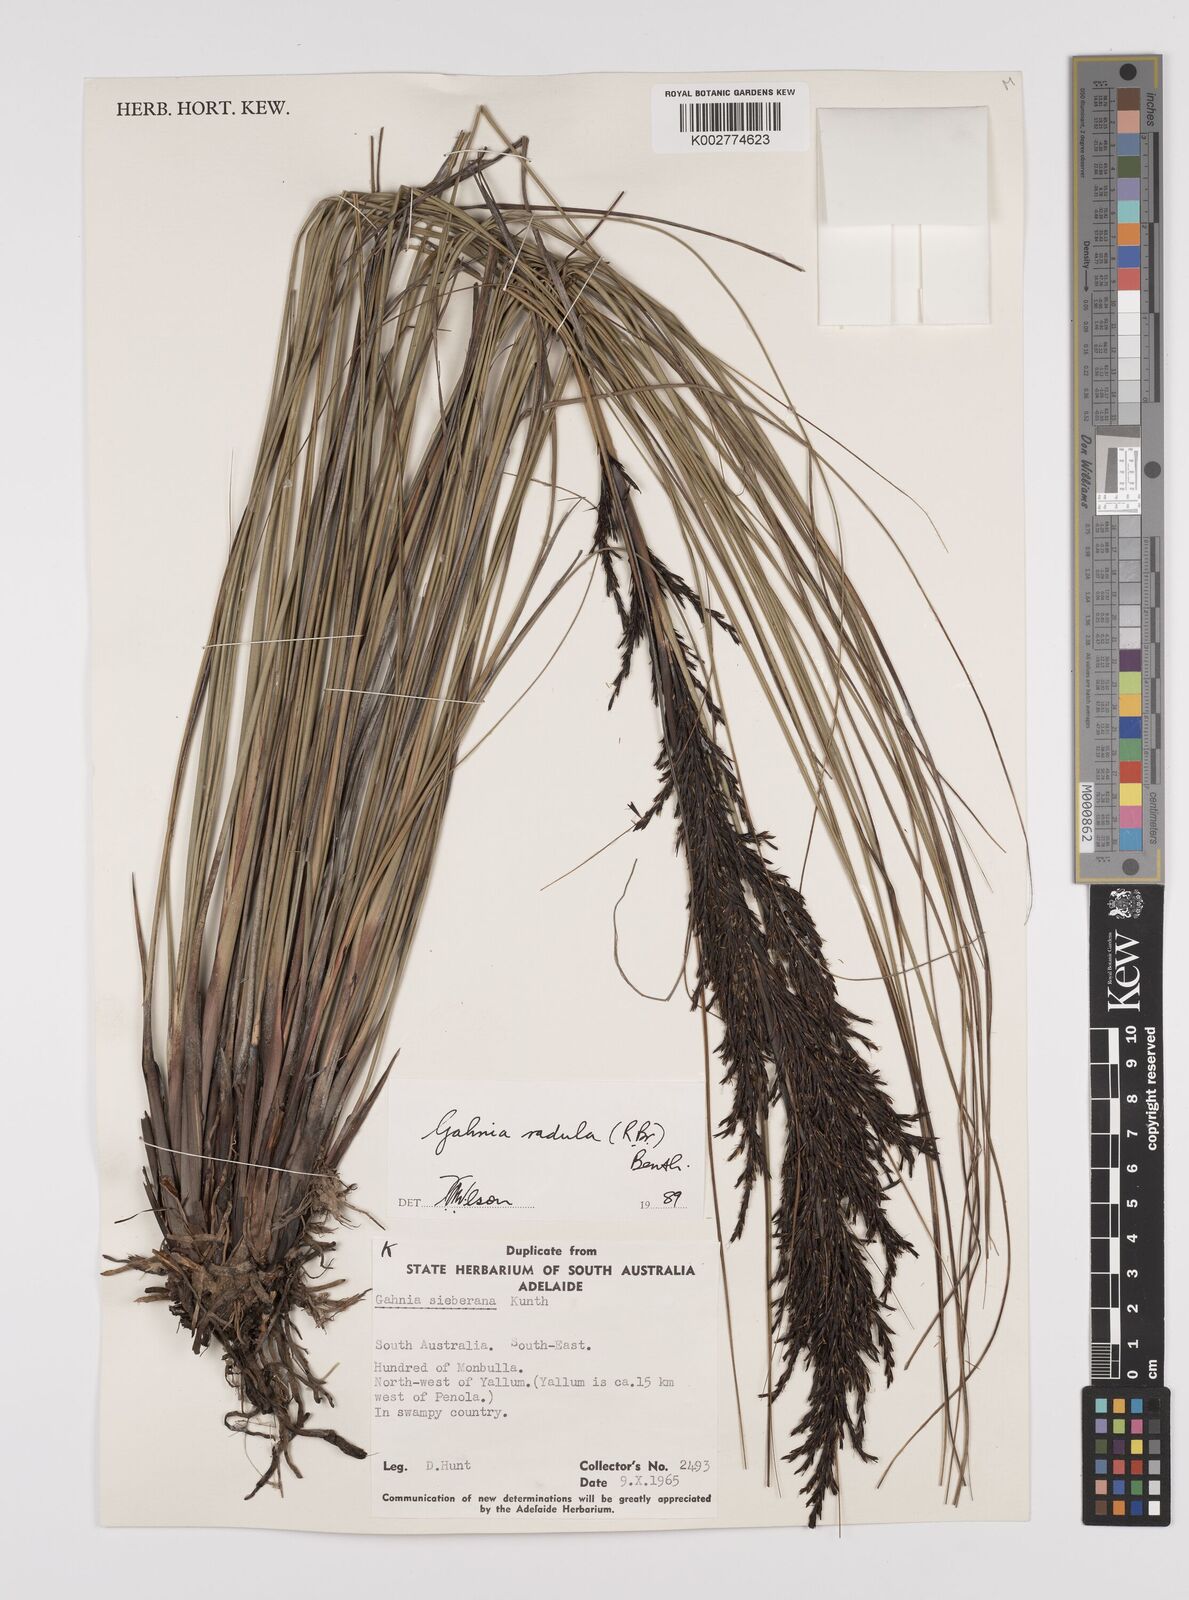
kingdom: Plantae
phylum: Tracheophyta
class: Liliopsida
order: Poales
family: Cyperaceae
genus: Gahnia
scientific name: Gahnia
